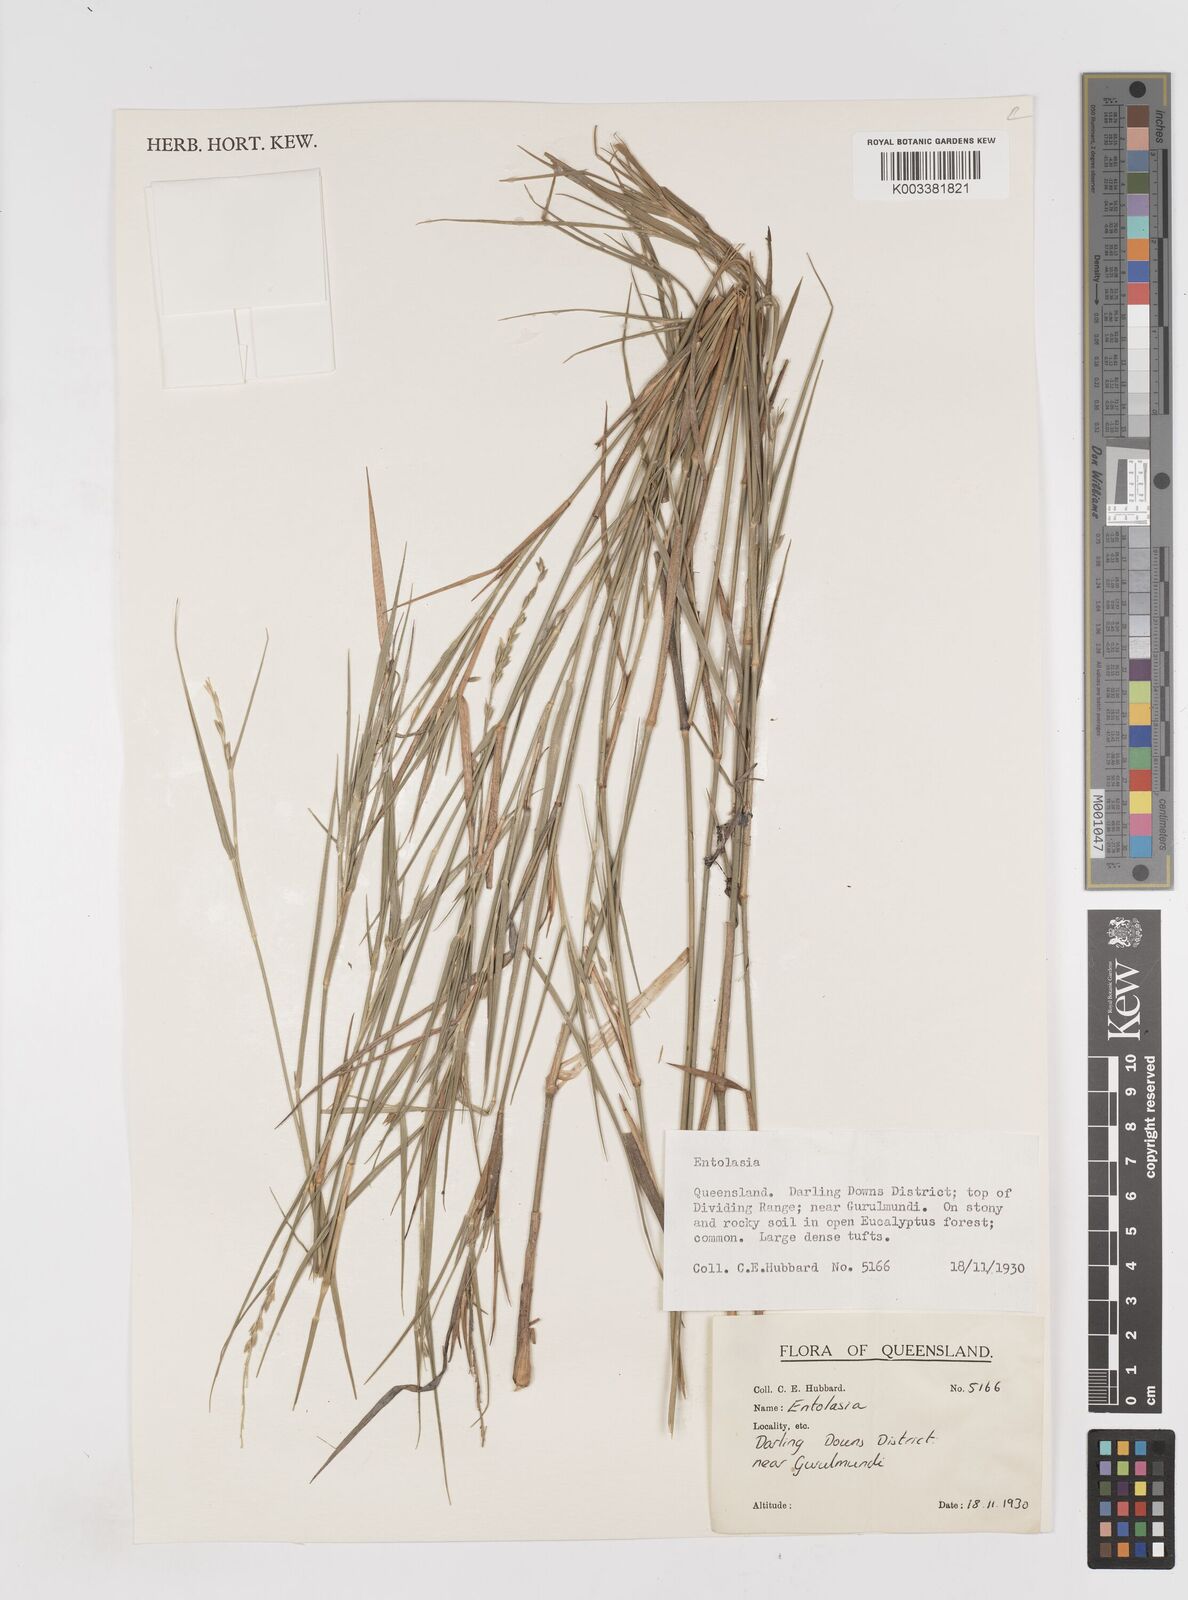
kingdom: Plantae
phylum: Tracheophyta
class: Liliopsida
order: Poales
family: Poaceae
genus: Entolasia
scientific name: Entolasia
